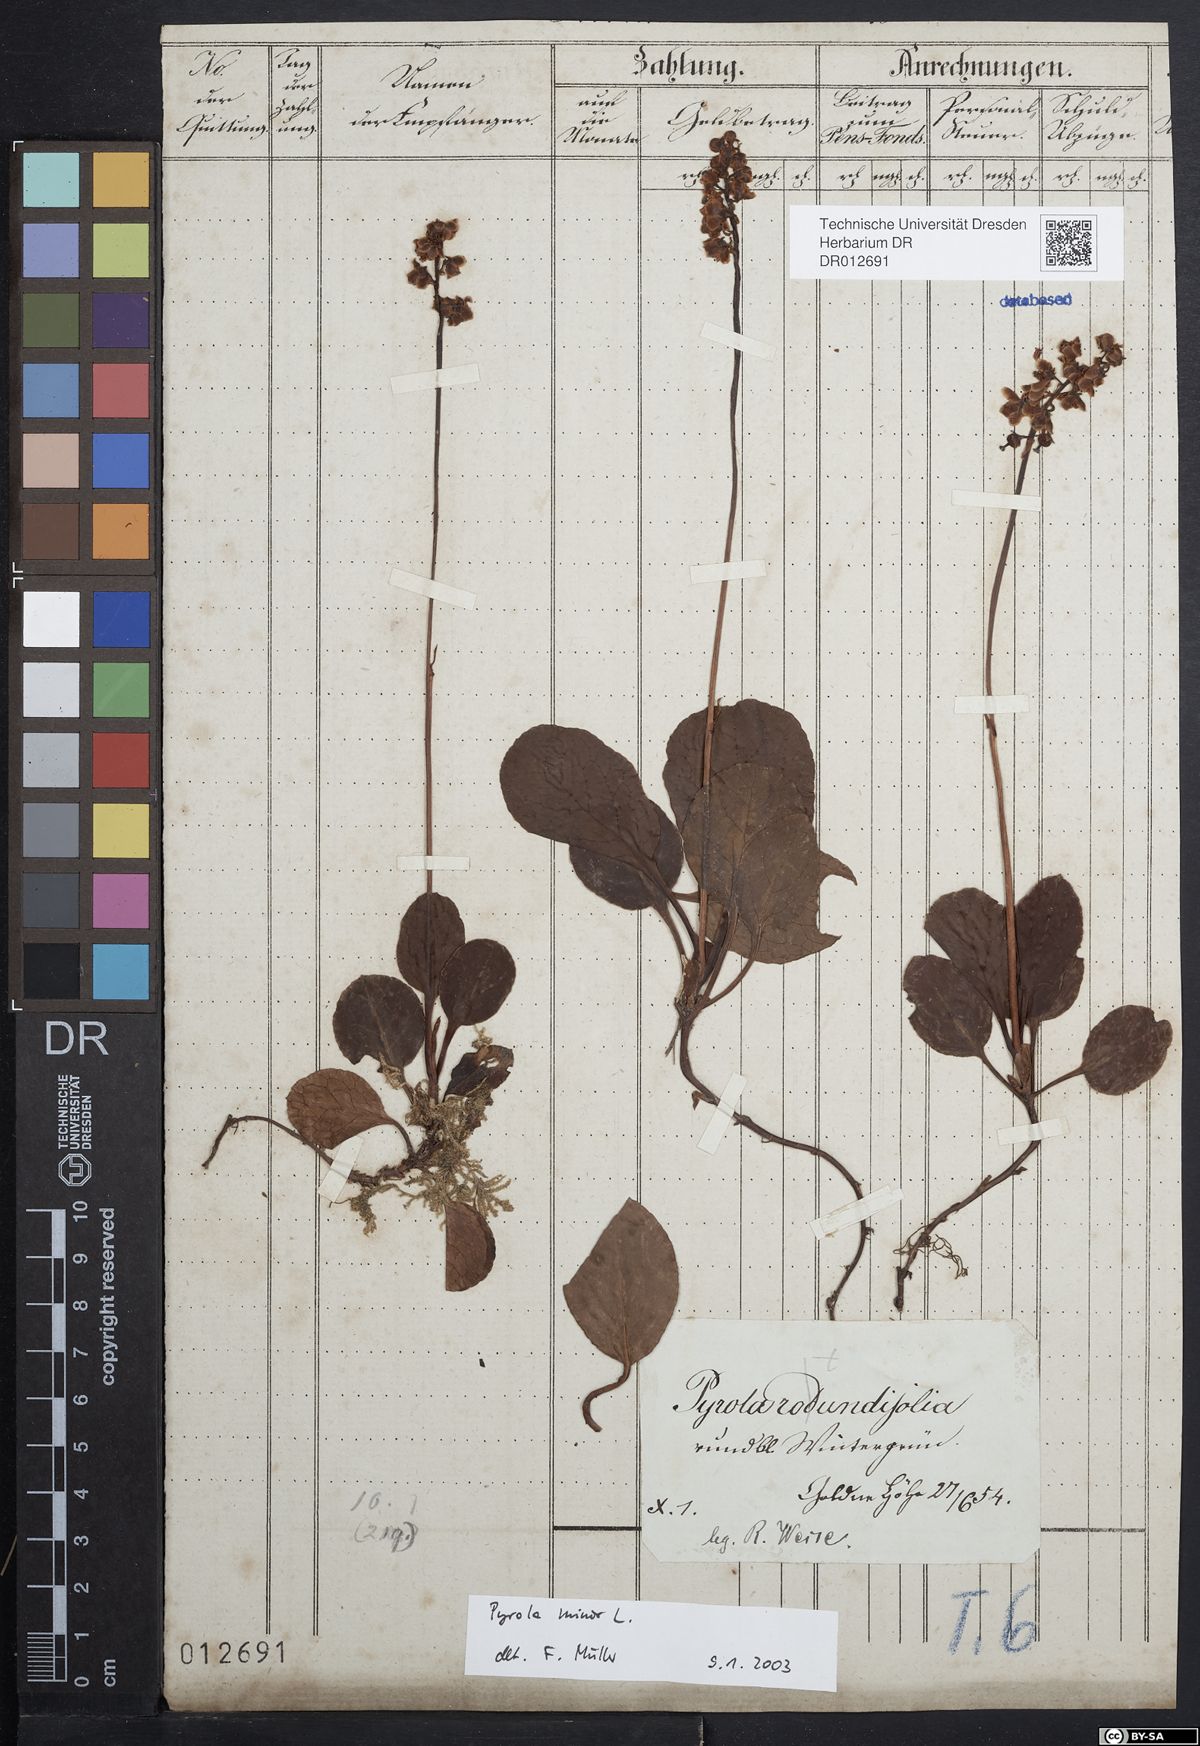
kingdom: Plantae
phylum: Tracheophyta
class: Magnoliopsida
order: Ericales
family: Ericaceae
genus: Pyrola
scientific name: Pyrola minor
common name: Common wintergreen
